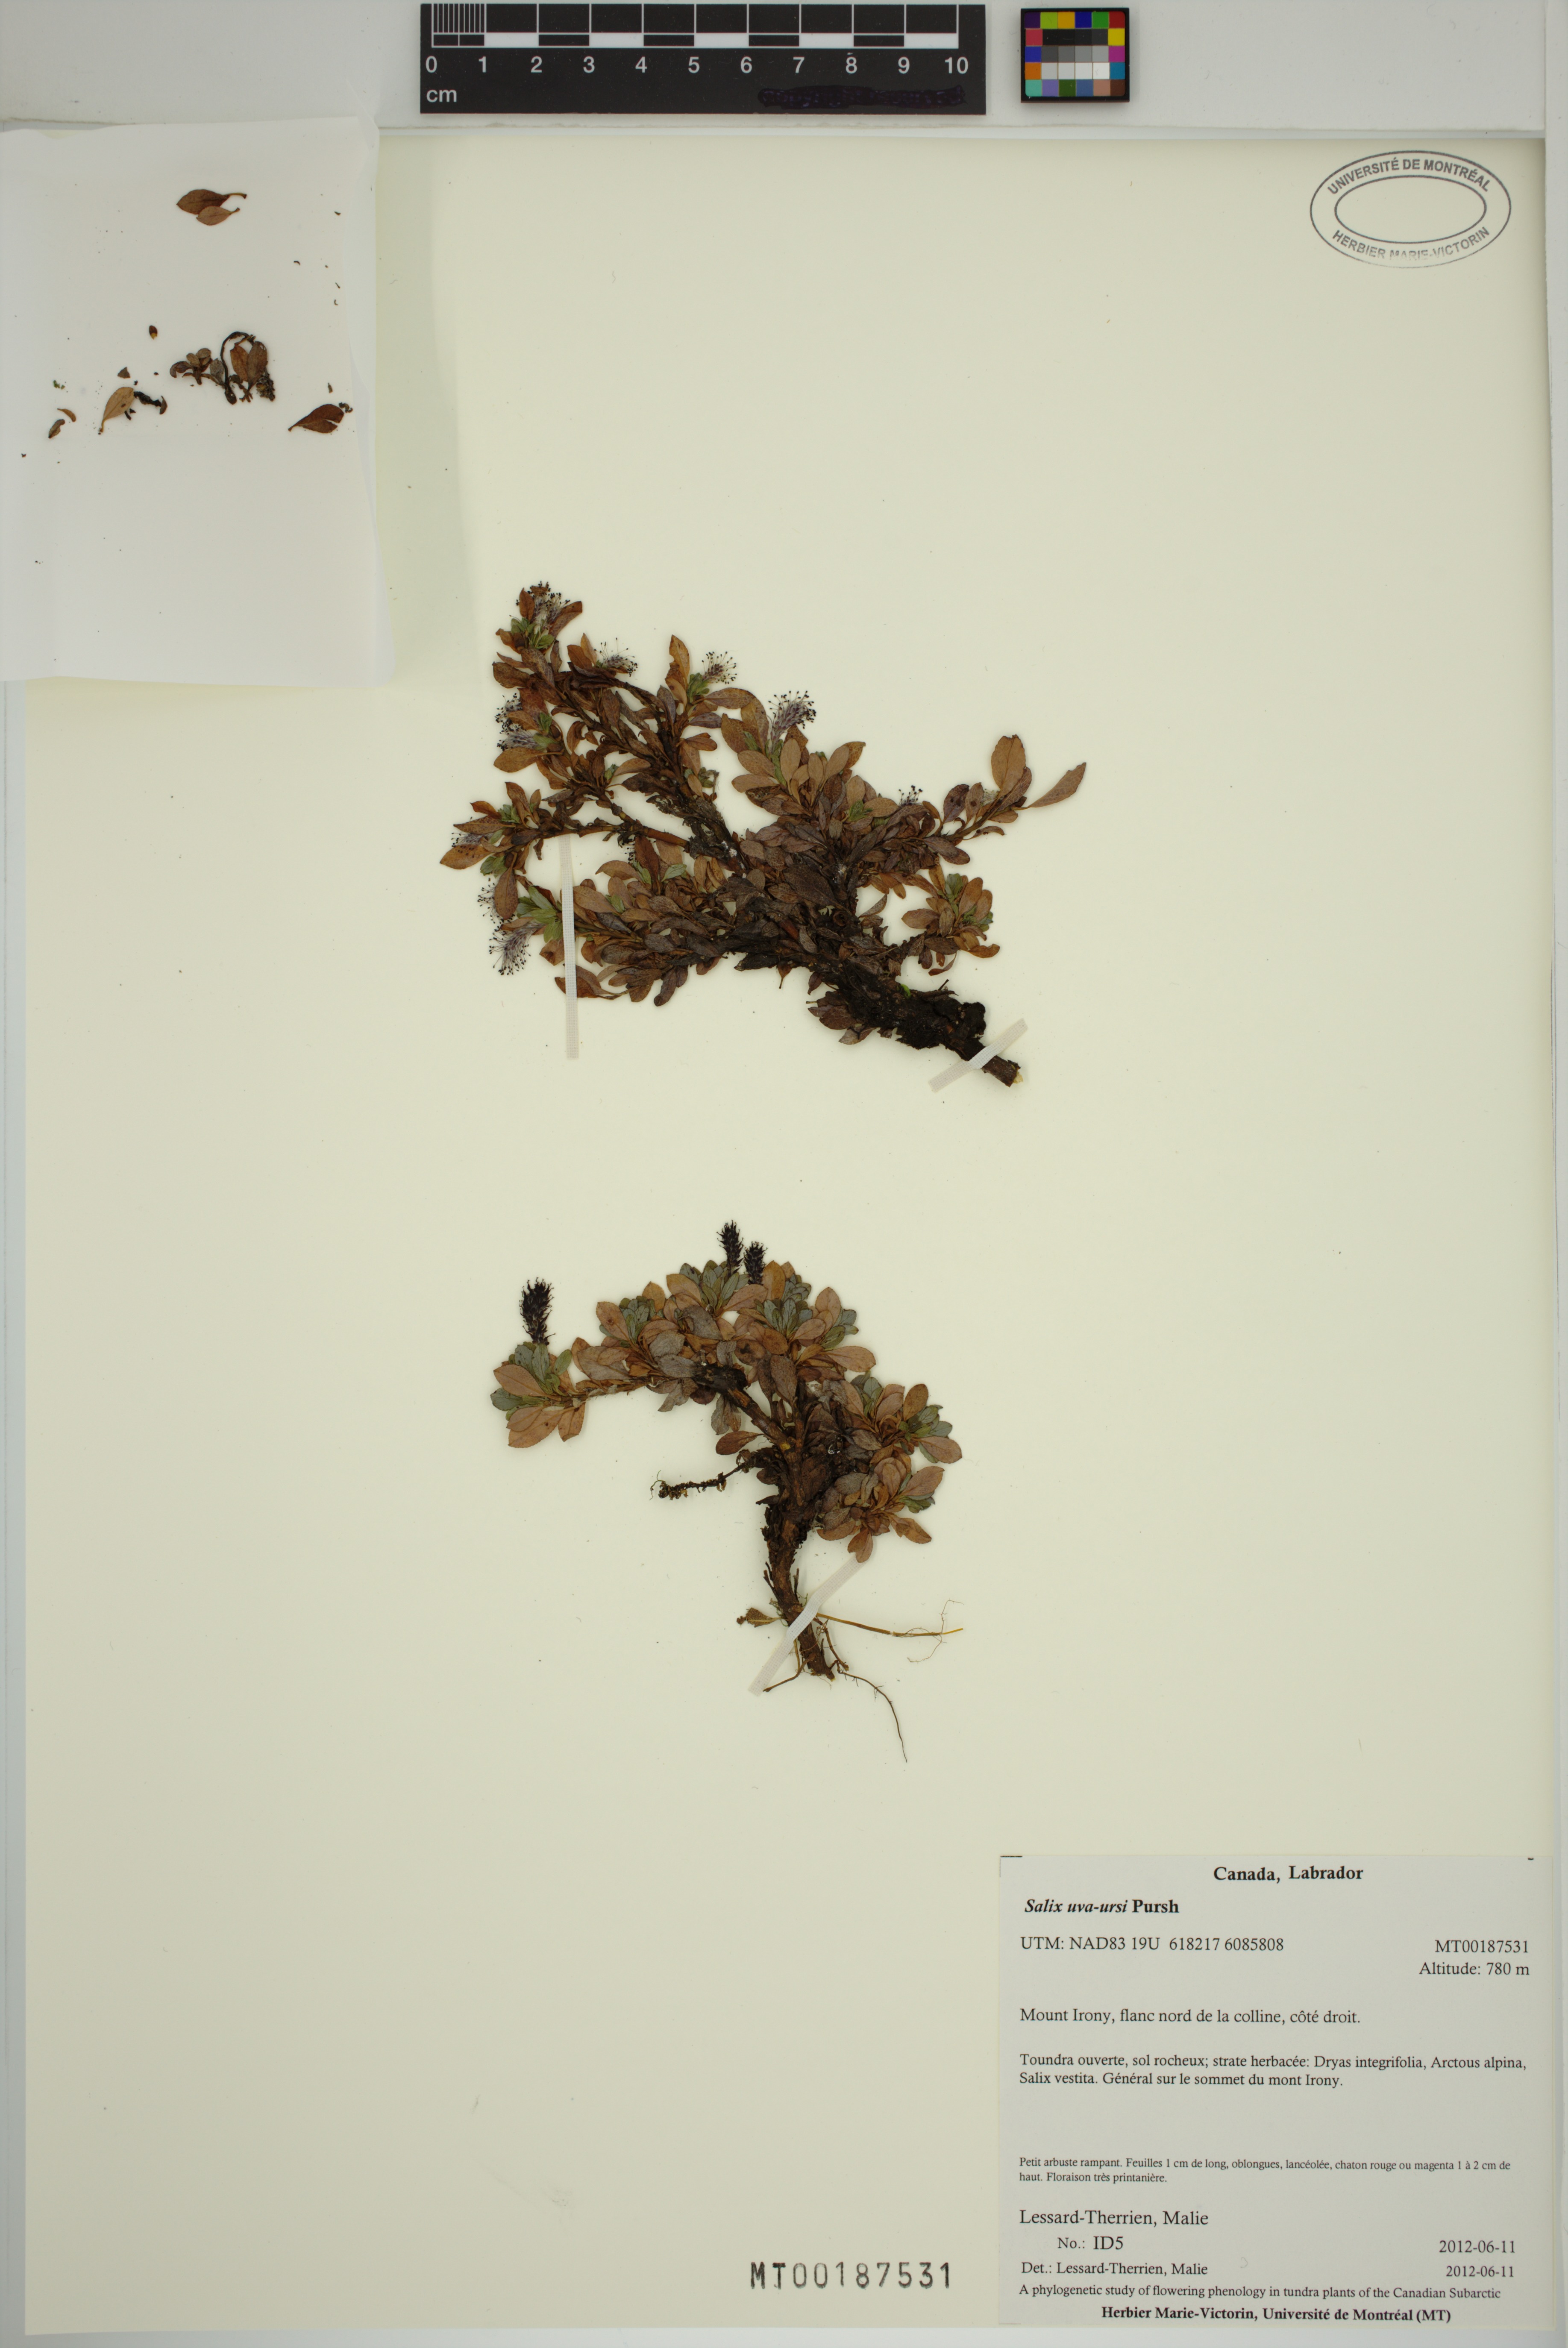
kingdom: Plantae
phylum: Tracheophyta
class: Magnoliopsida
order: Malpighiales
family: Salicaceae
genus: Salix
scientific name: Salix uva-ursi
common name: Bearberry willow
